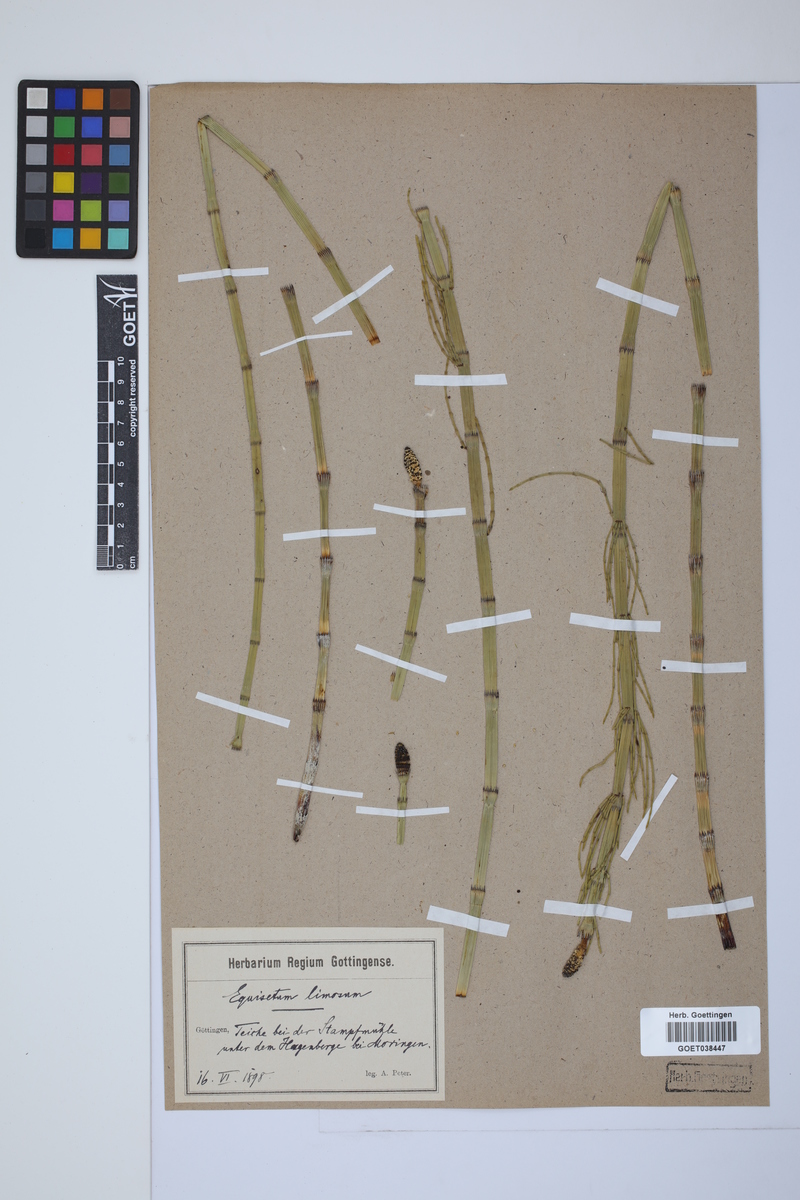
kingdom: Plantae
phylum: Tracheophyta
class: Polypodiopsida
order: Equisetales
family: Equisetaceae
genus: Equisetum
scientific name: Equisetum fluviatile
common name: Water horsetail
